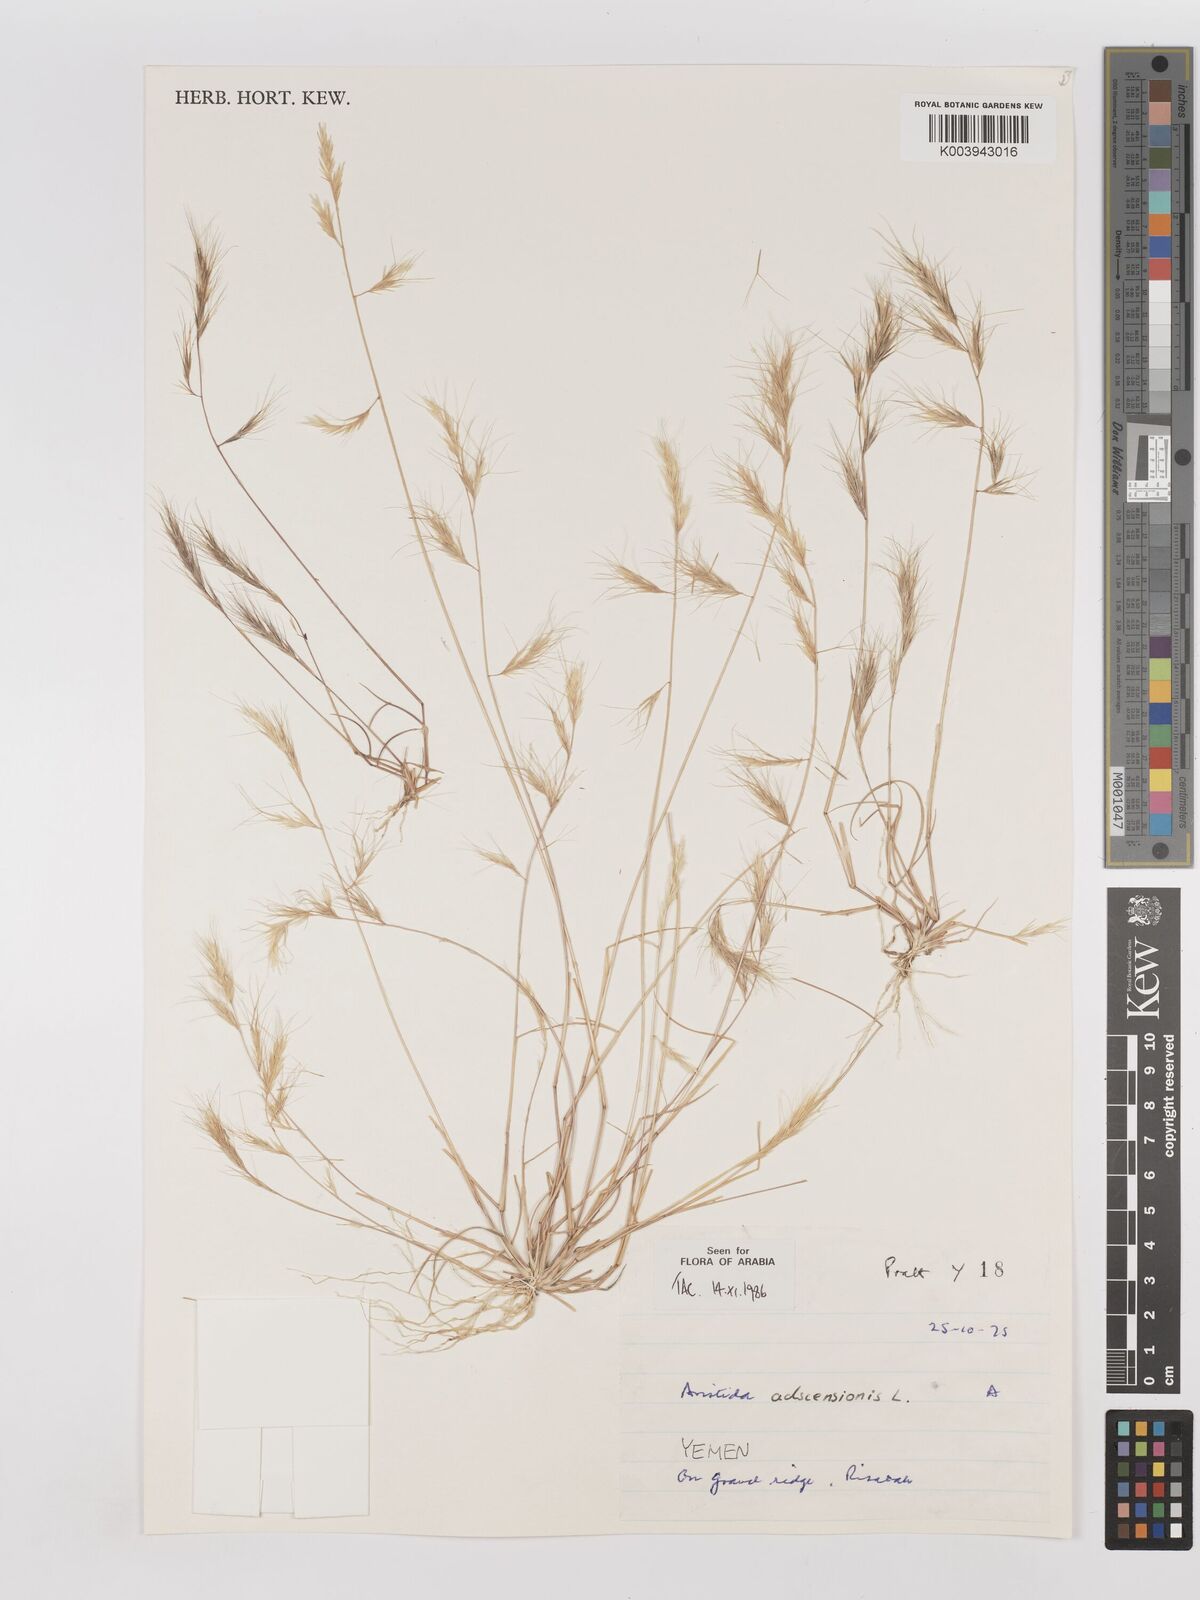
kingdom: Plantae
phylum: Tracheophyta
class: Liliopsida
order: Poales
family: Poaceae
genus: Aristida
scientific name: Aristida adscensionis
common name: Sixweeks threeawn
